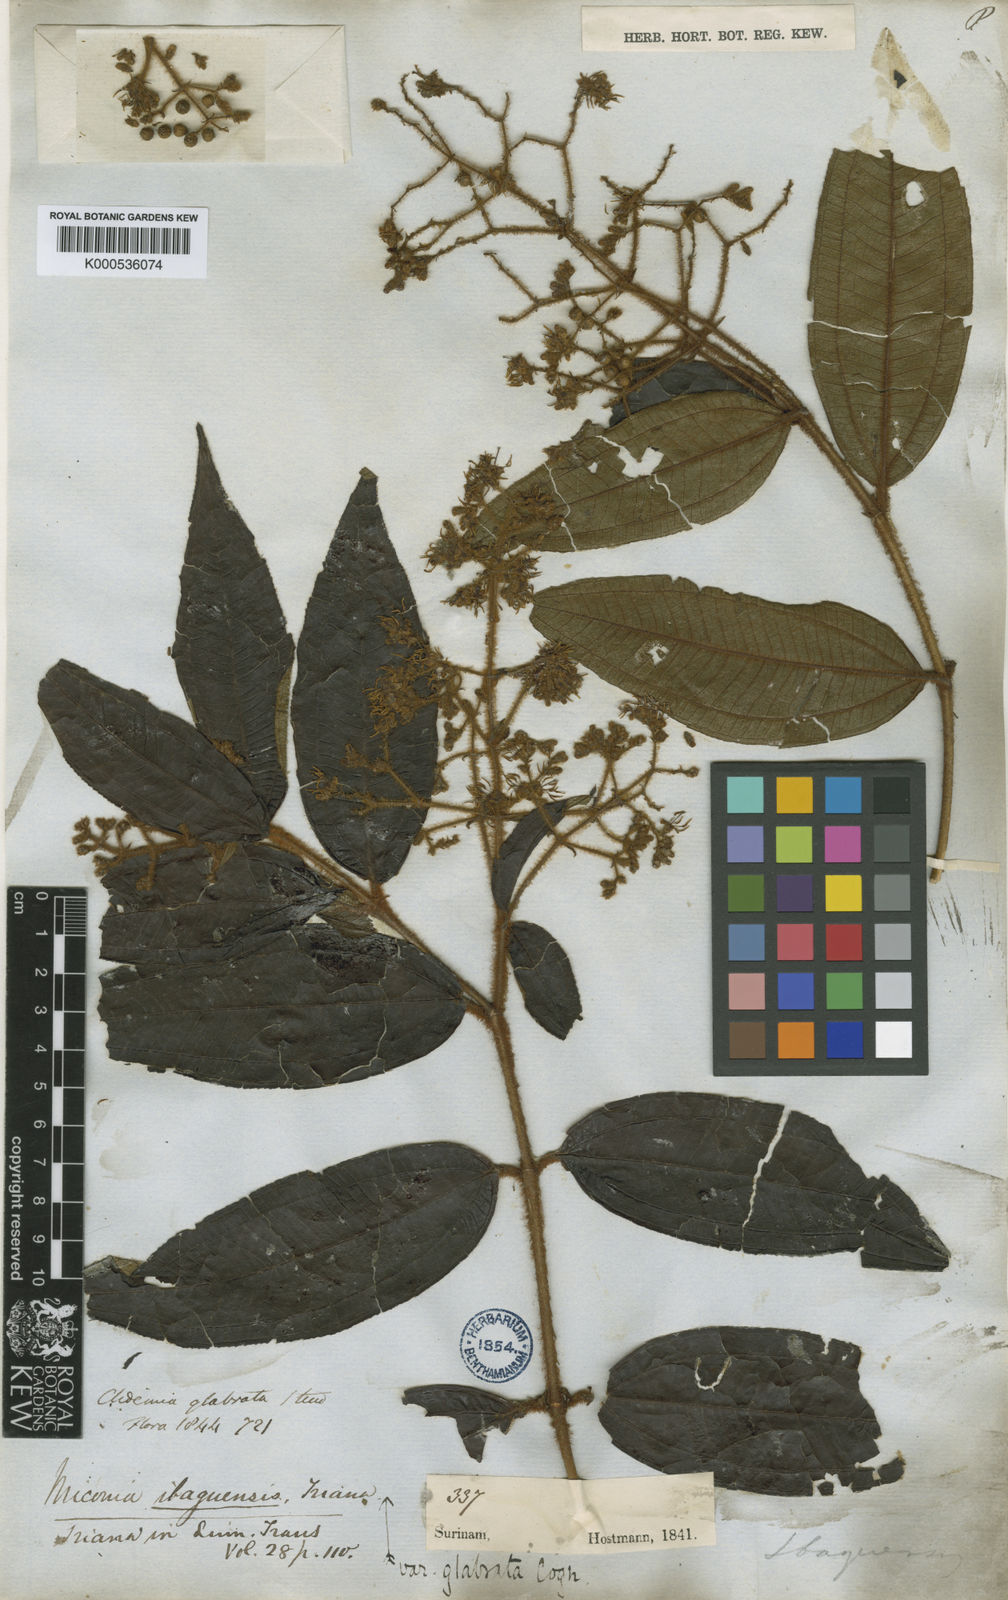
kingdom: Plantae
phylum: Tracheophyta
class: Magnoliopsida
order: Myrtales
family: Melastomataceae
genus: Miconia
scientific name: Miconia ibaguensis
